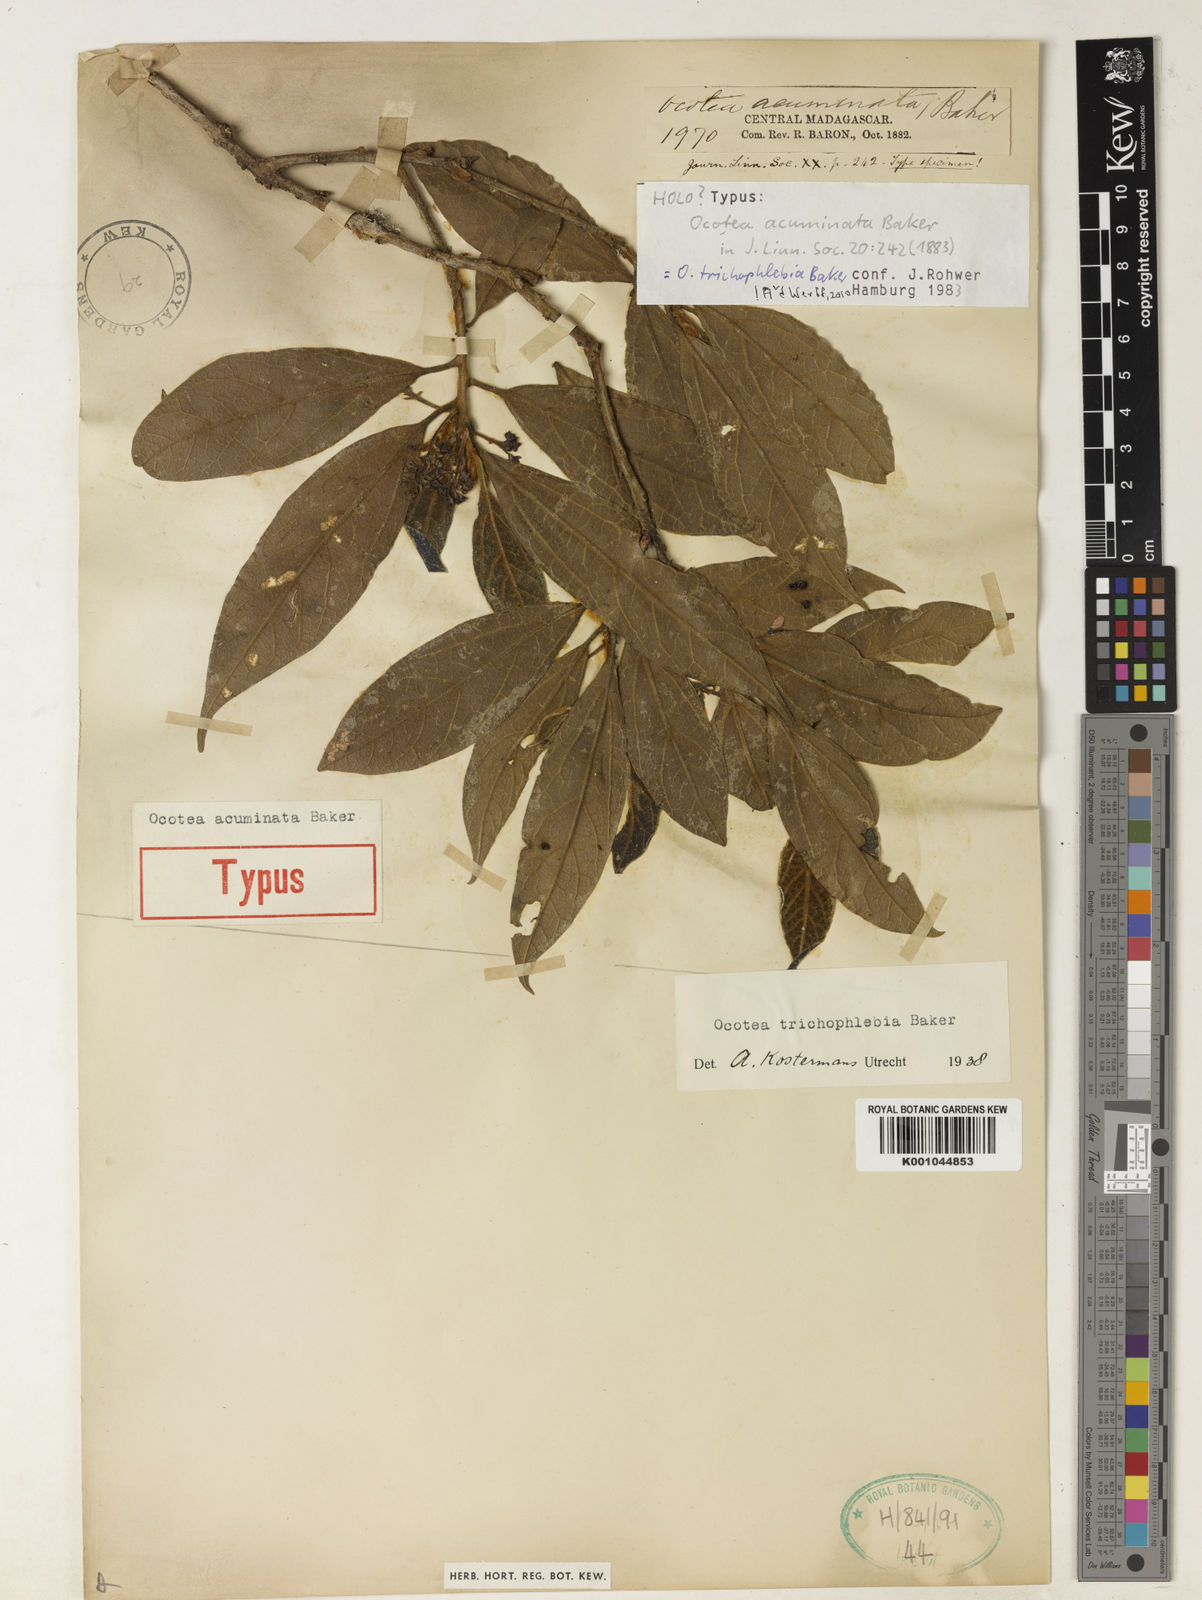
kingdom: Plantae
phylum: Tracheophyta
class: Magnoliopsida
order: Laurales
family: Lauraceae
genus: Mespilodaphne
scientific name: Mespilodaphne trichophlebia
